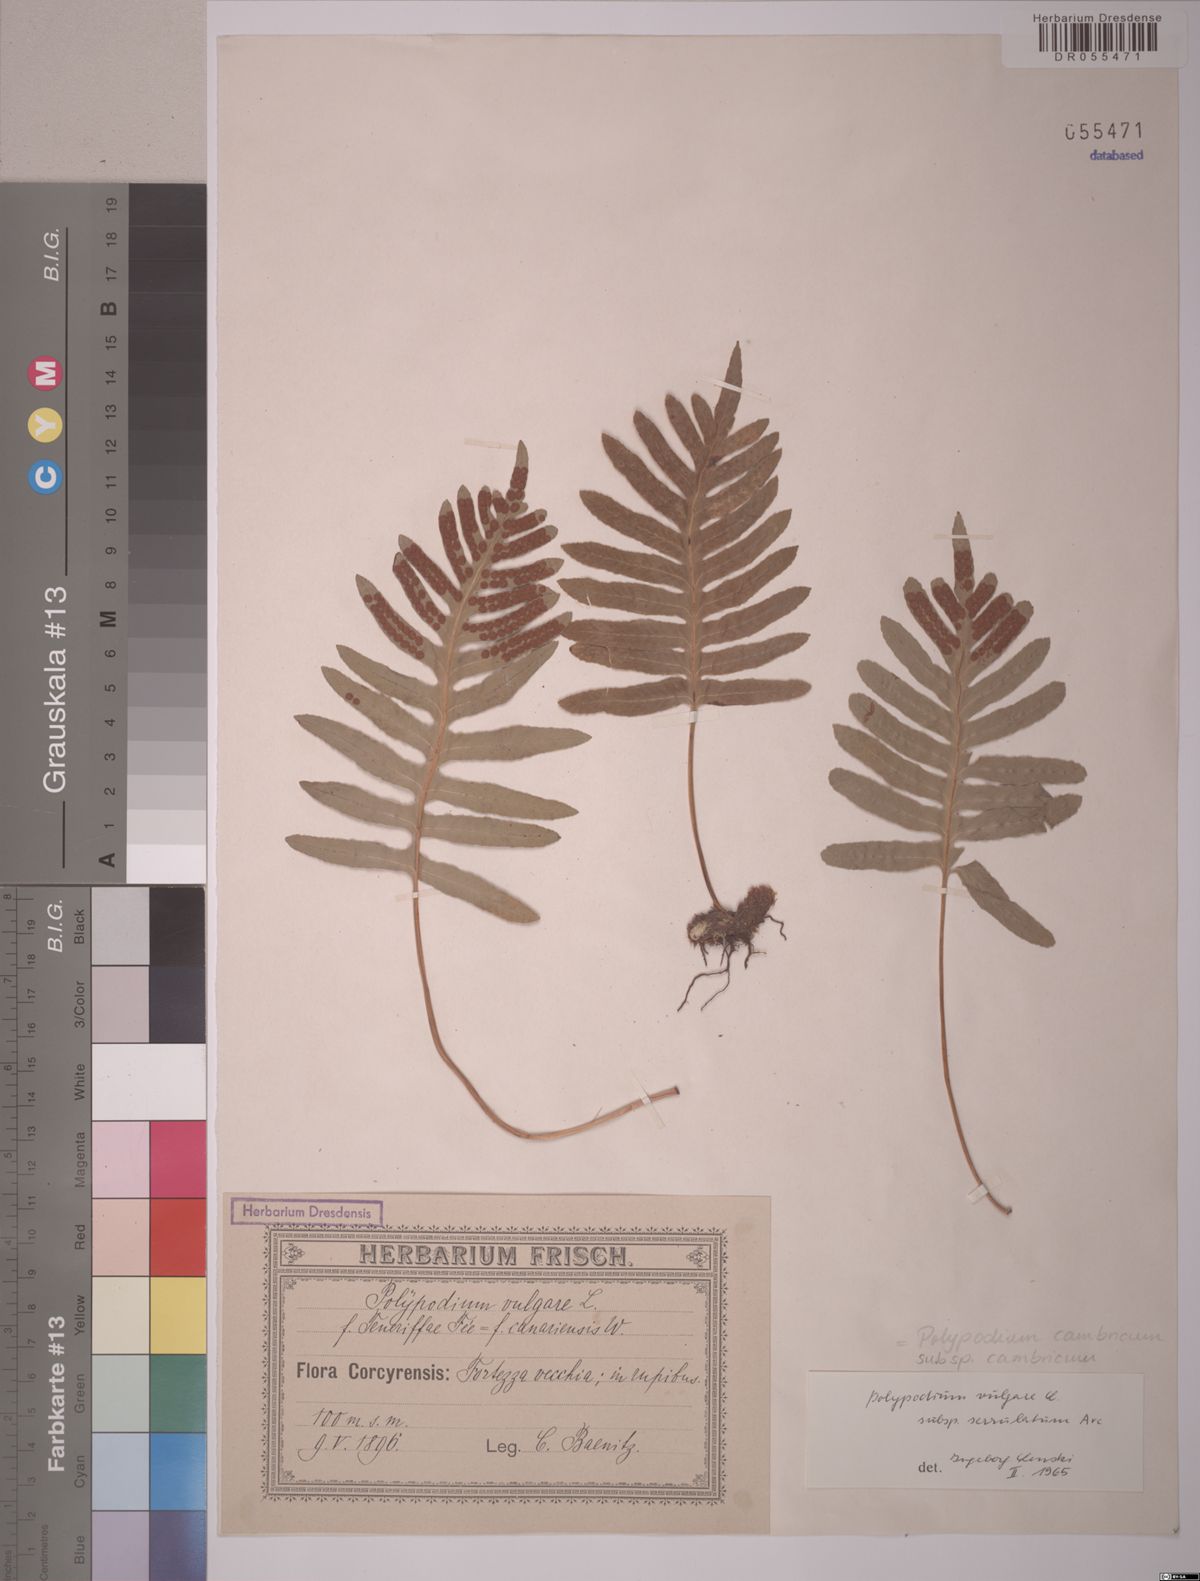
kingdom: Plantae
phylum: Tracheophyta
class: Polypodiopsida
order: Polypodiales
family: Polypodiaceae
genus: Polypodium
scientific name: Polypodium cambricum
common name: Southern polypody
